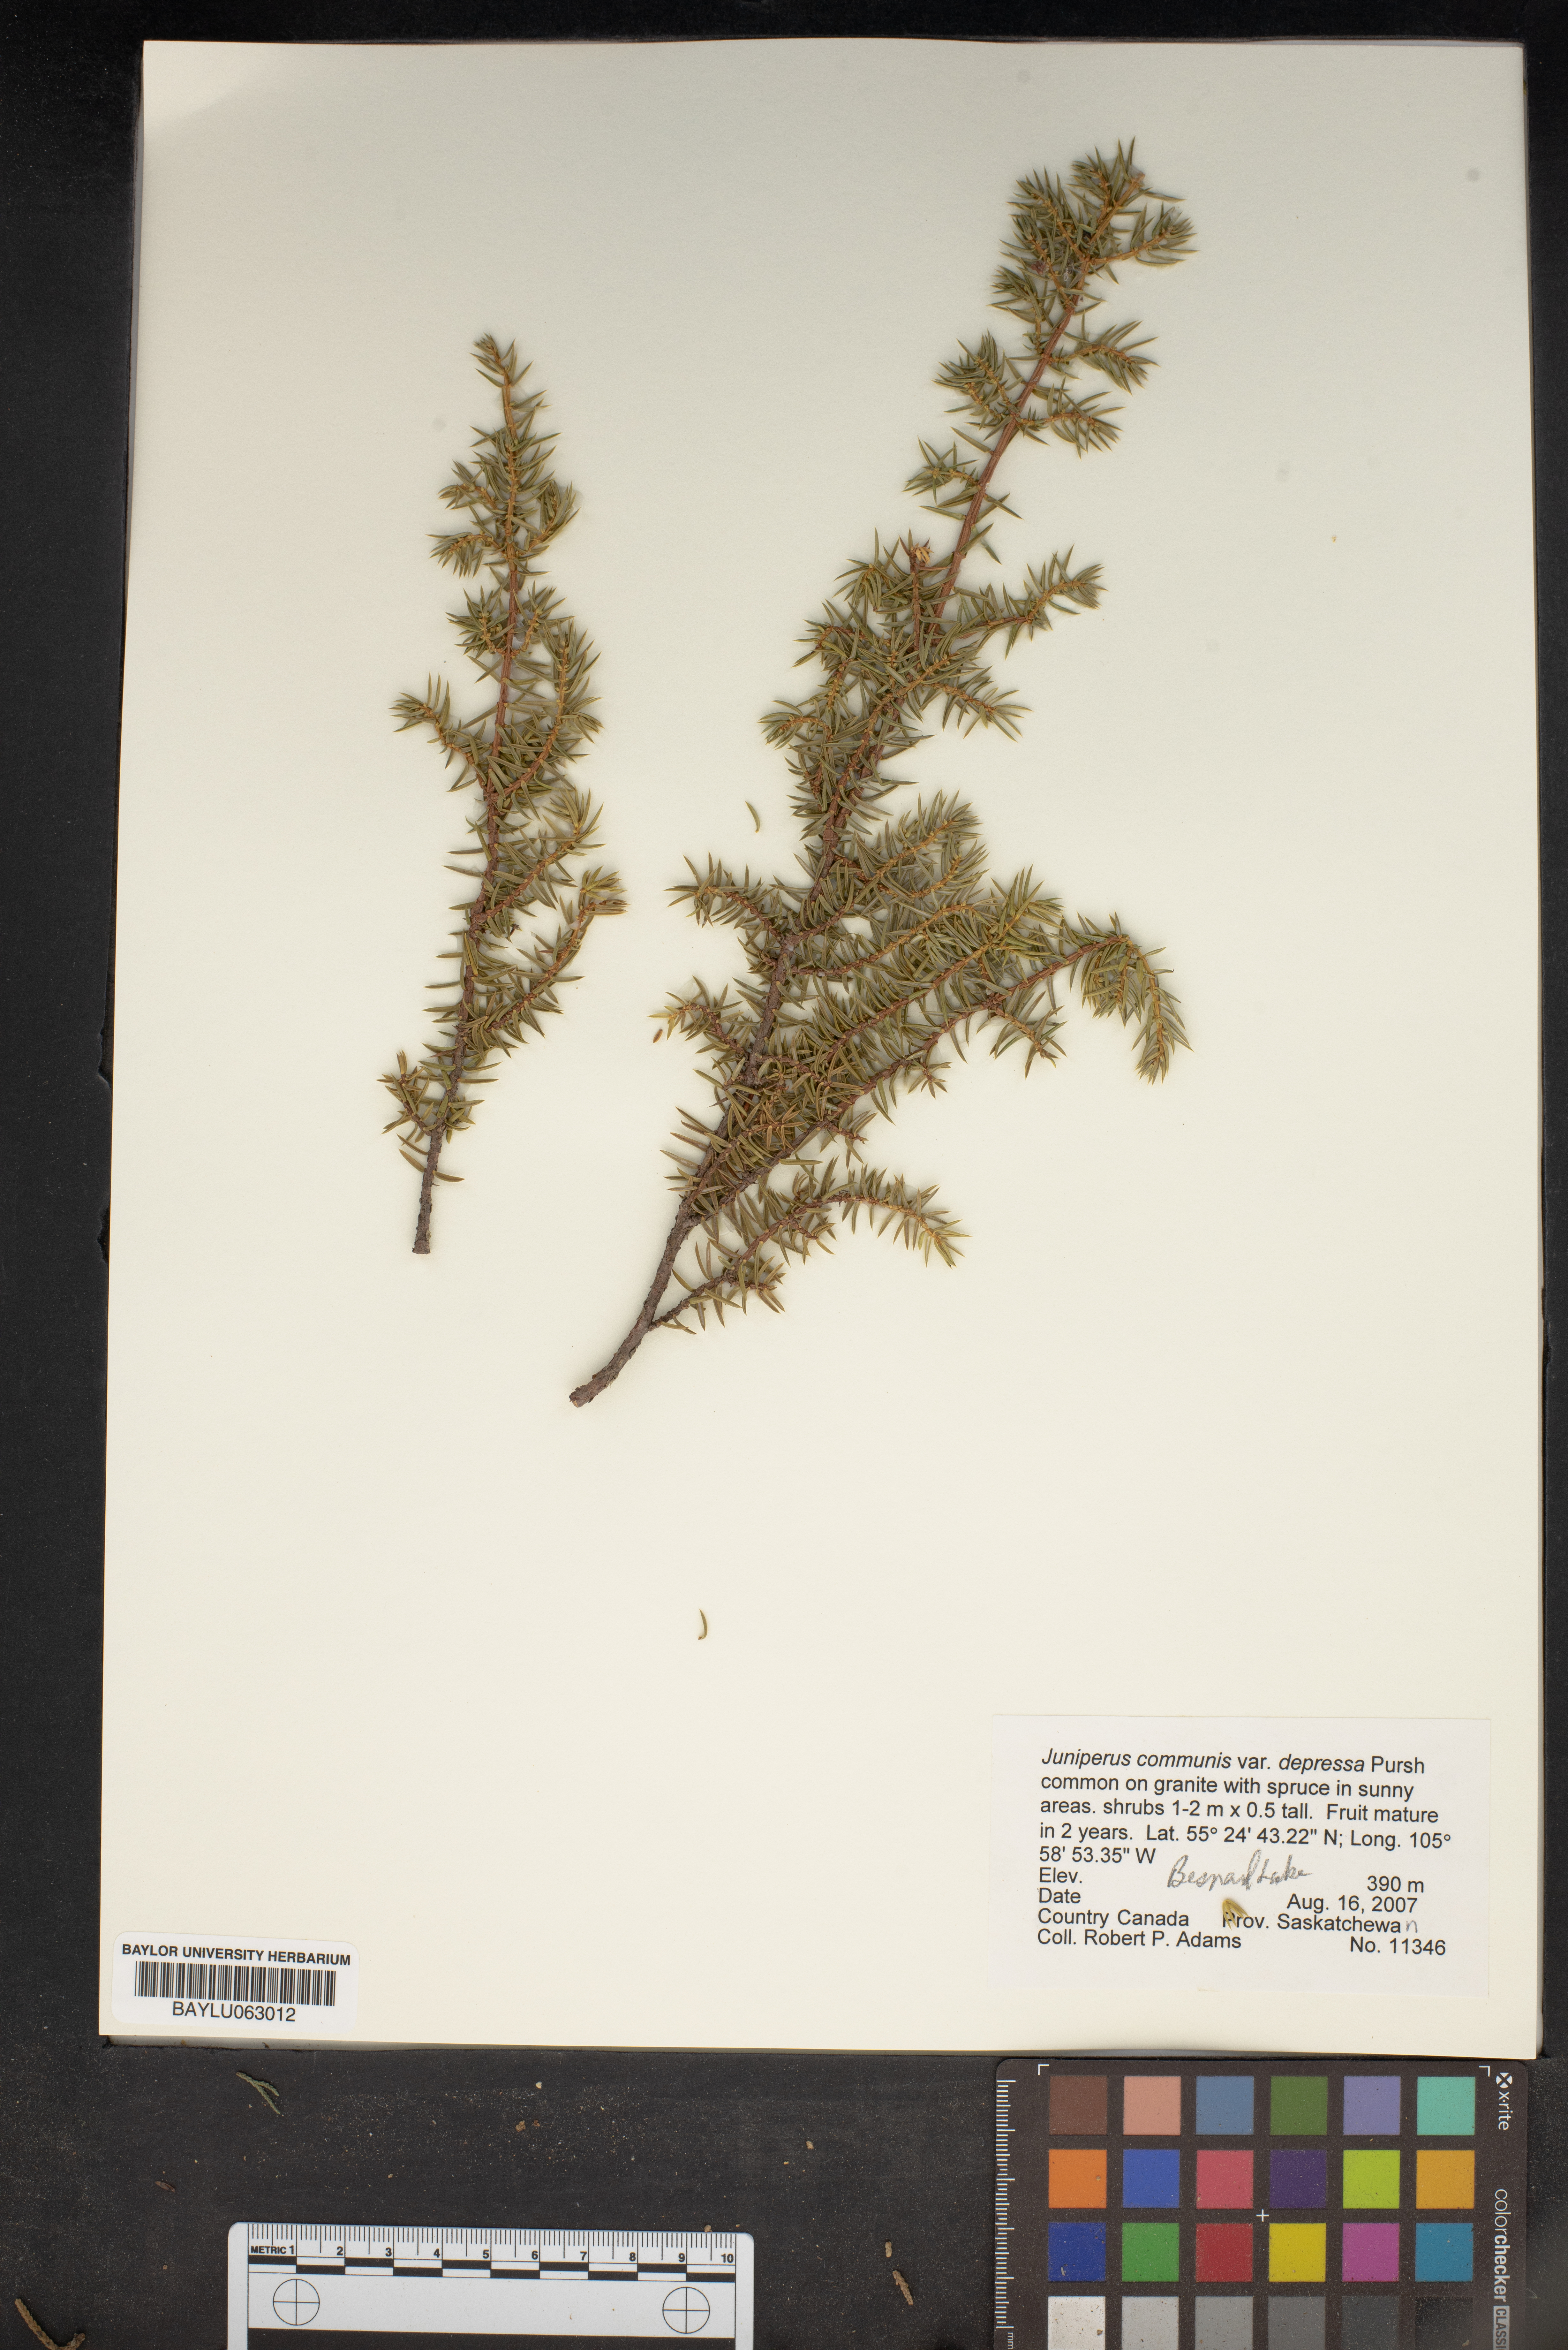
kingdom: Plantae
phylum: Tracheophyta
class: Pinopsida
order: Pinales
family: Cupressaceae
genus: Juniperus
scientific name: Juniperus communis
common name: Common juniper
